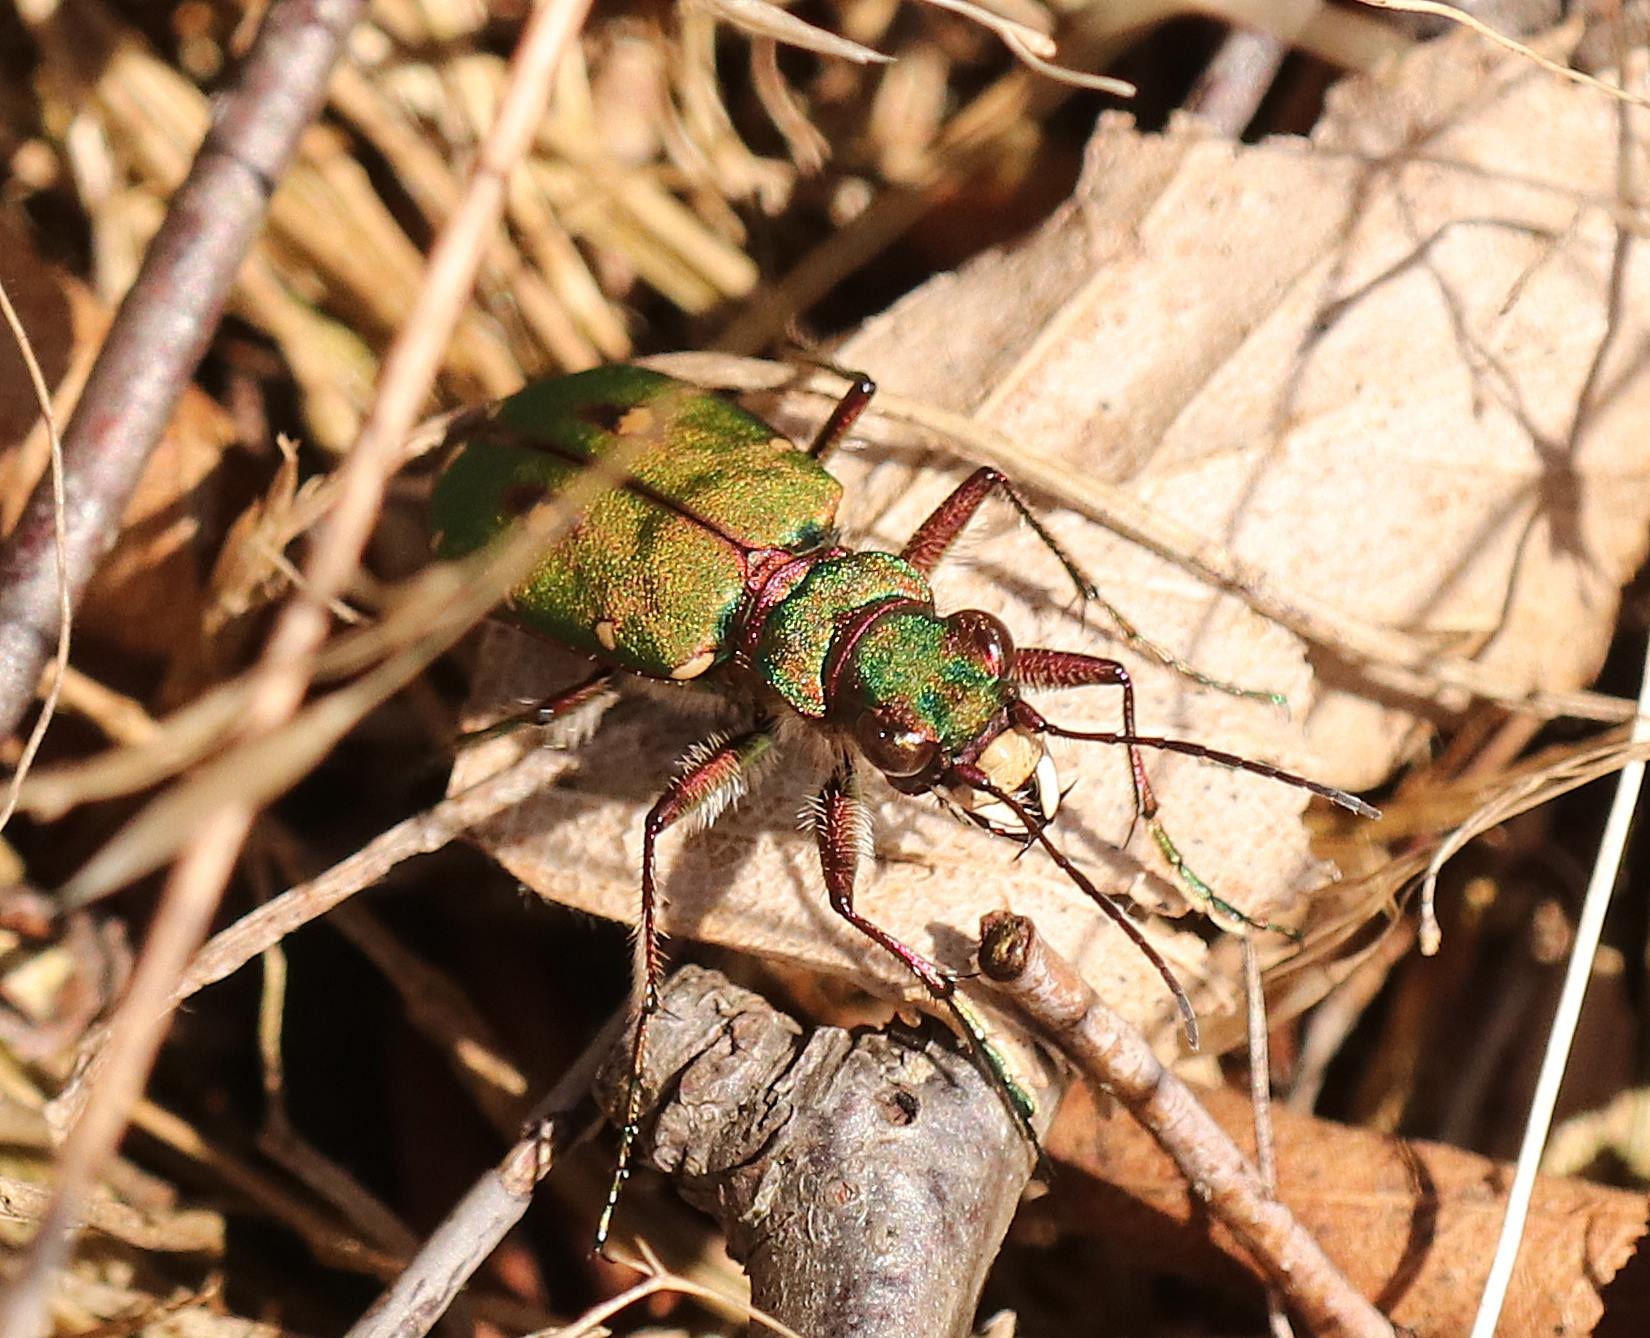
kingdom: Animalia
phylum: Arthropoda
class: Insecta
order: Coleoptera
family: Carabidae
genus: Cicindela
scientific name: Cicindela campestris
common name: Grøn sandspringer
